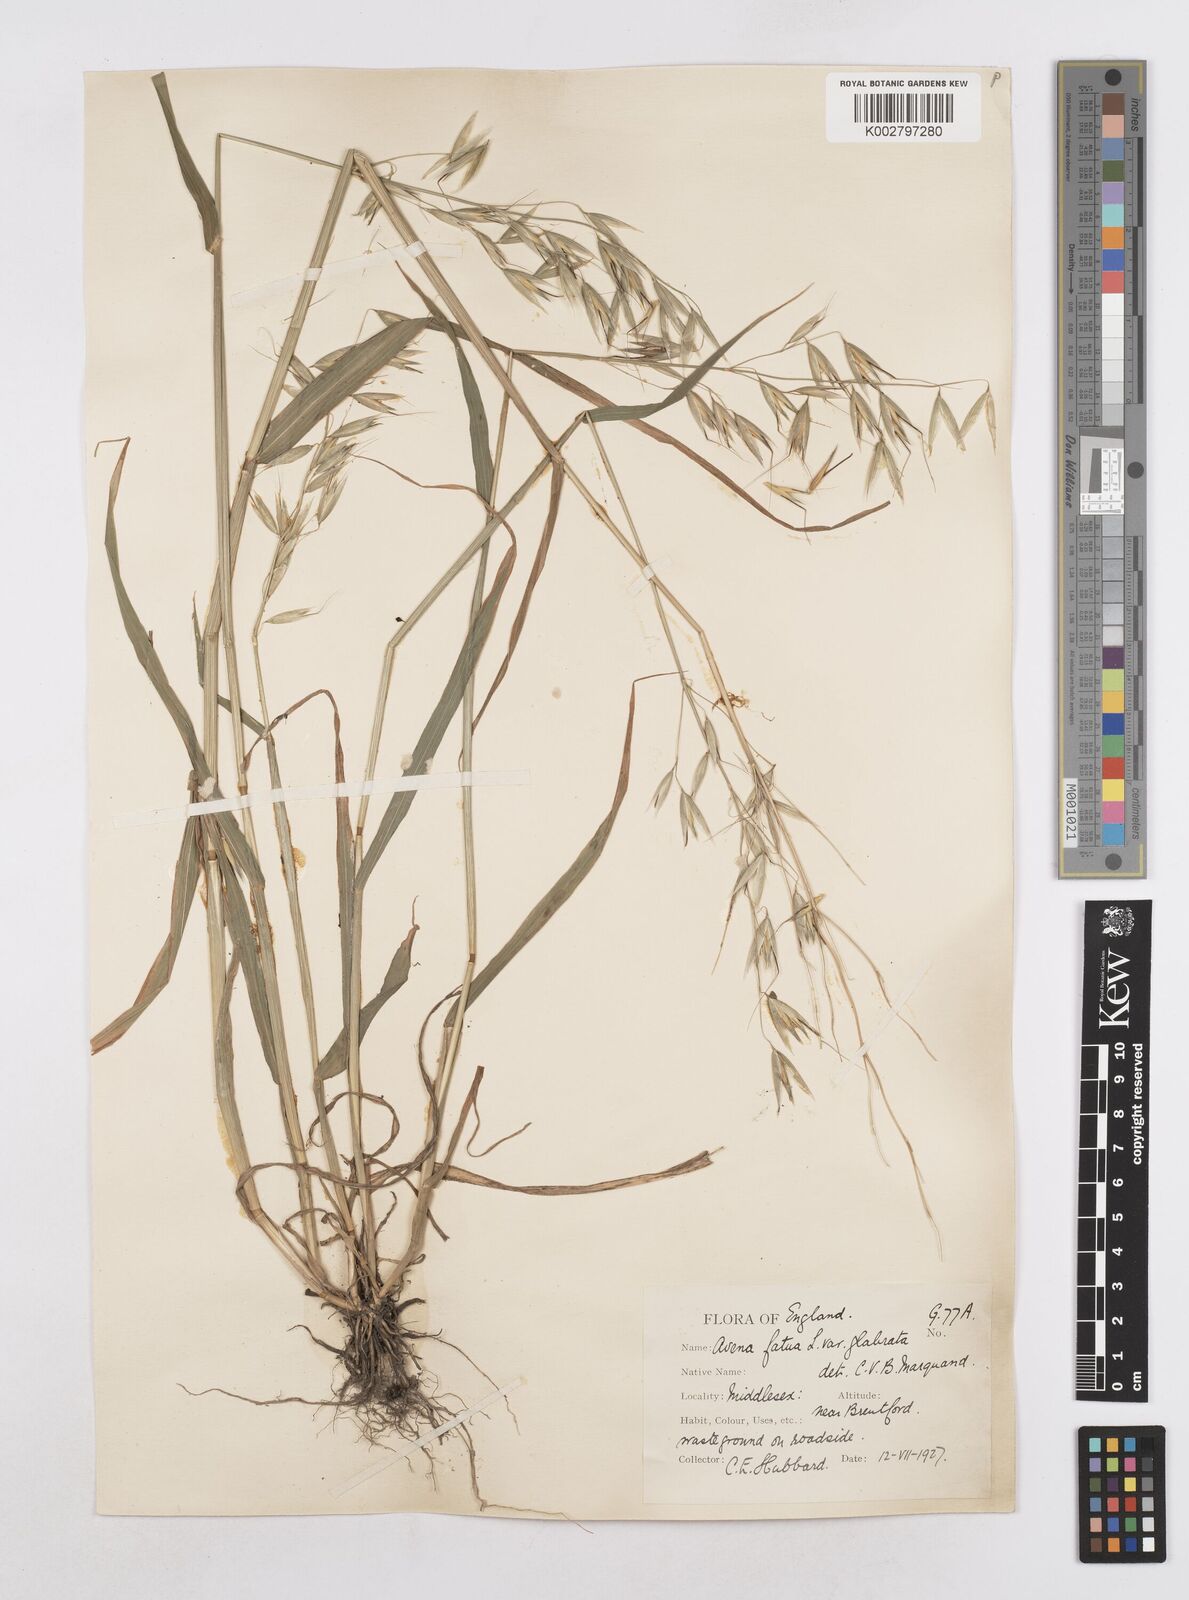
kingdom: Plantae
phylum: Tracheophyta
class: Liliopsida
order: Poales
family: Poaceae
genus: Avena
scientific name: Avena fatua
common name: Wild oat
